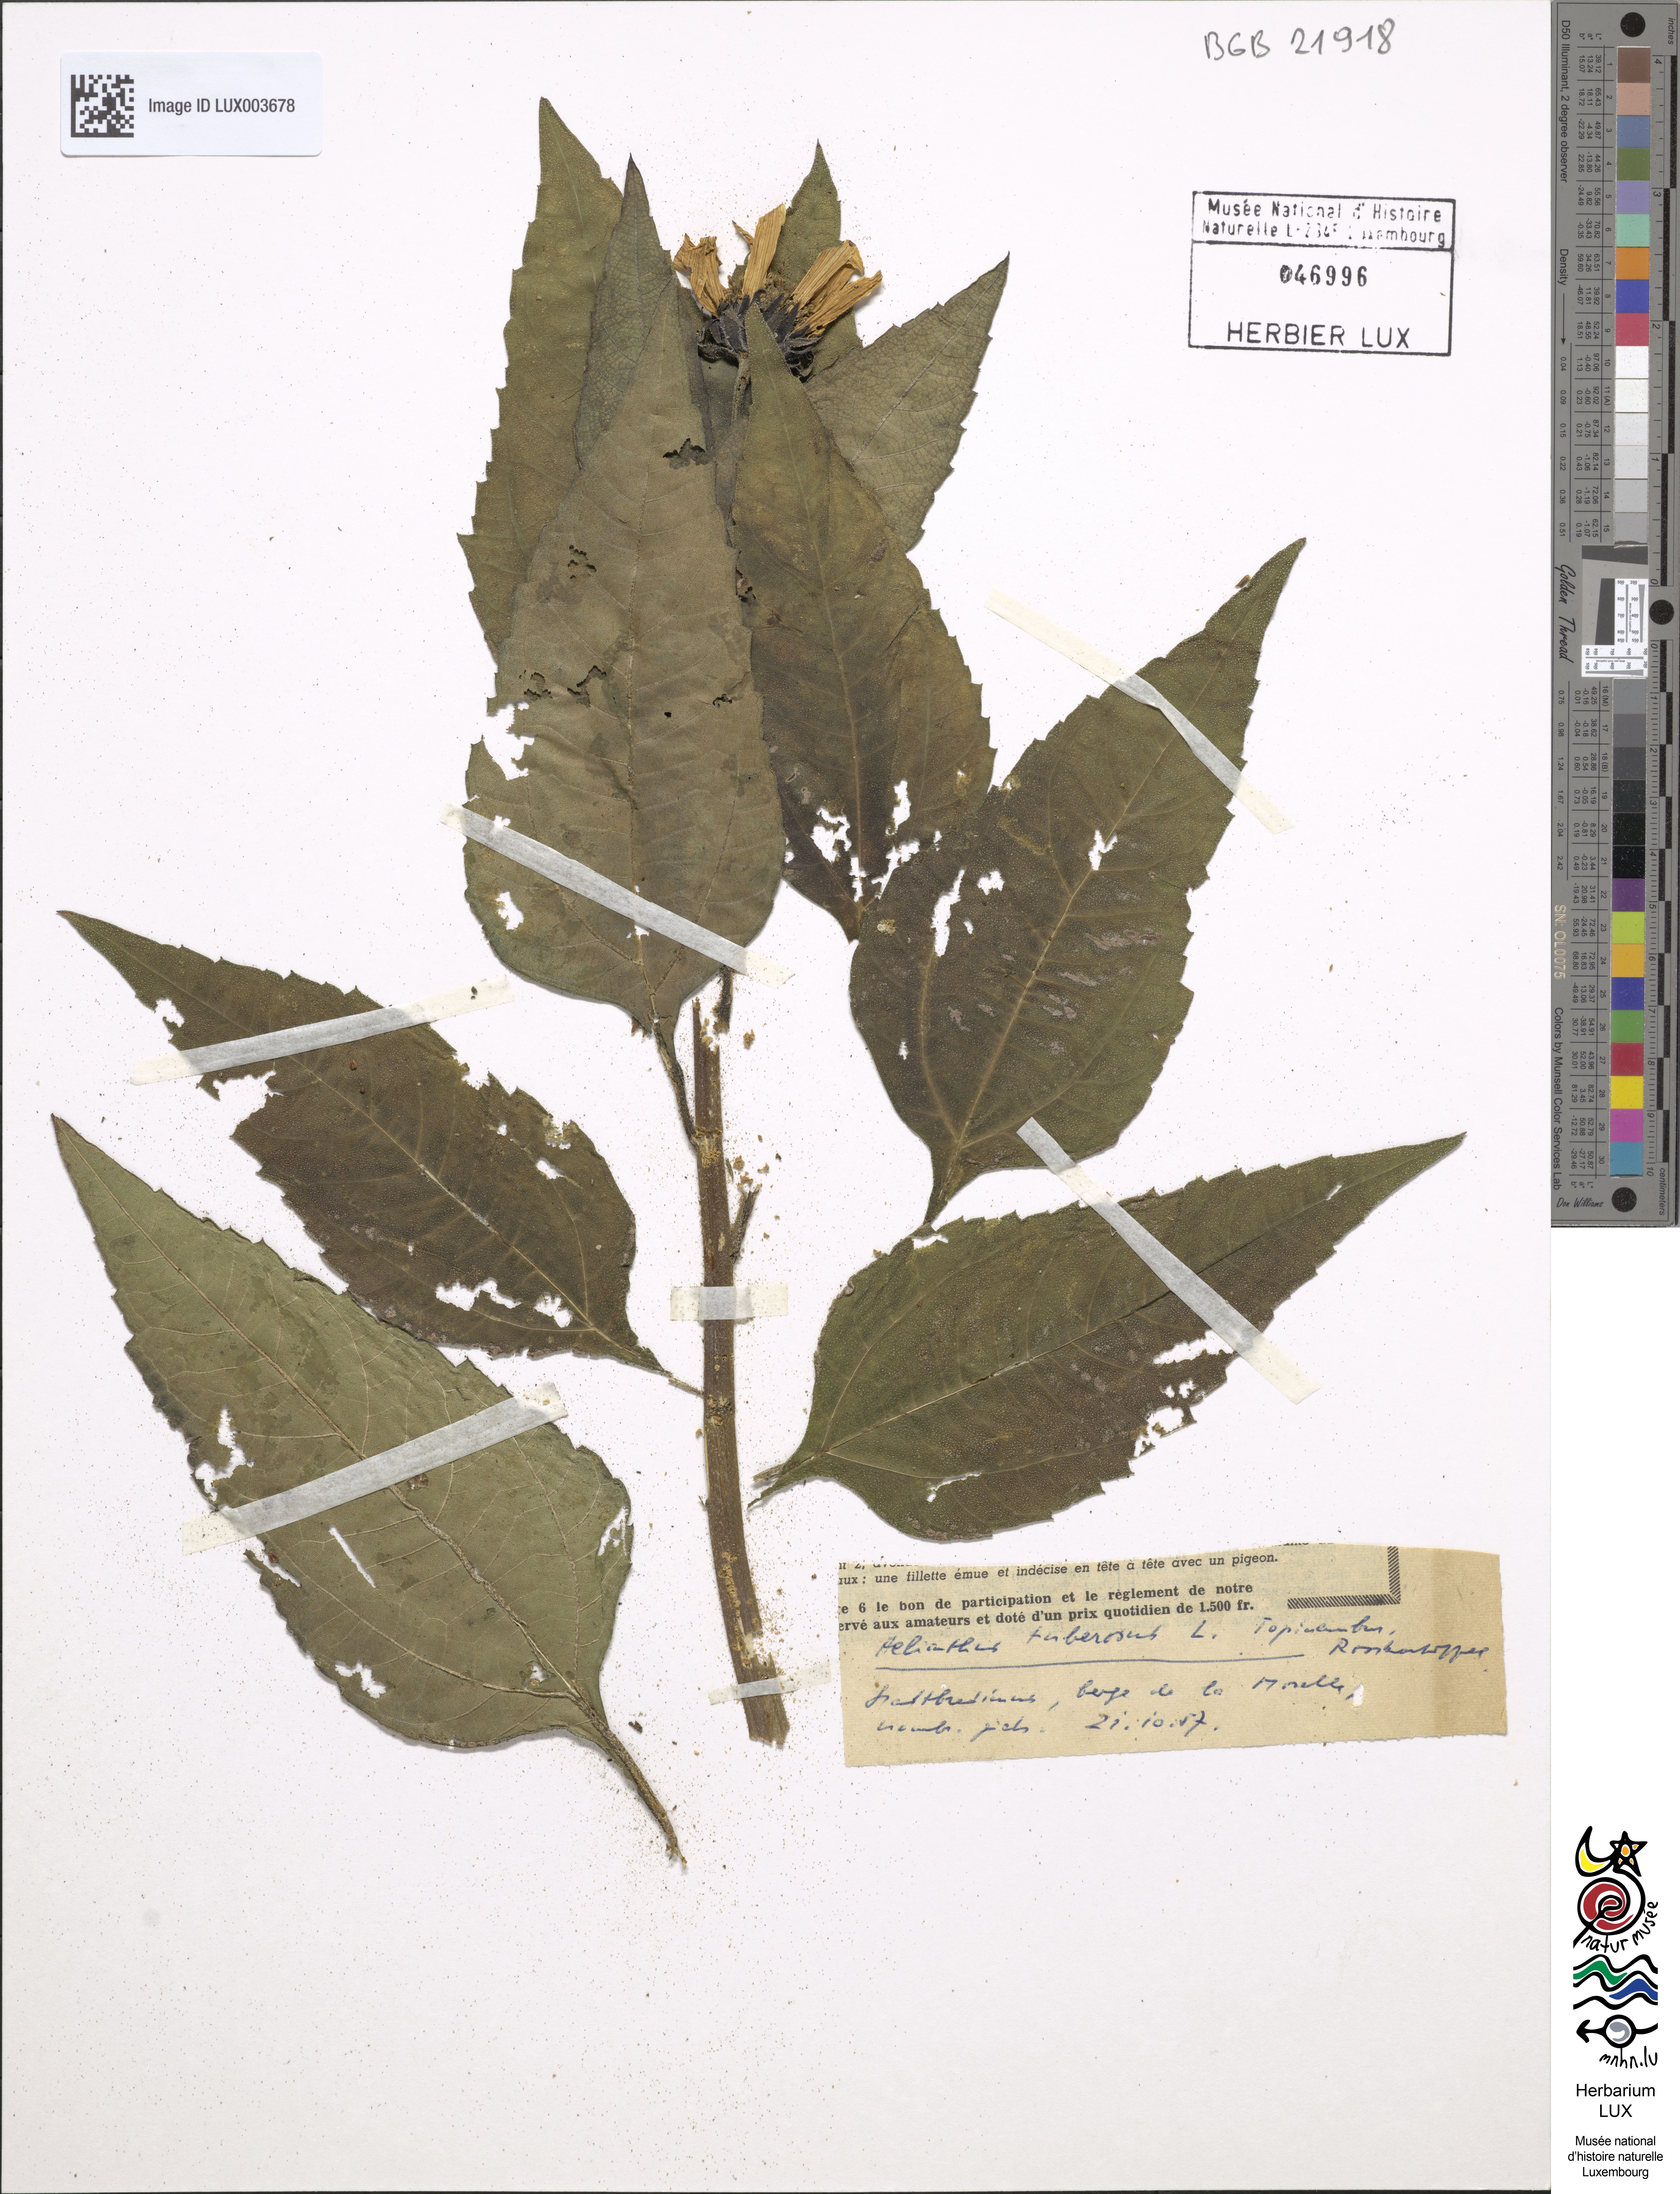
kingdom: Plantae
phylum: Tracheophyta
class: Magnoliopsida
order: Asterales
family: Asteraceae
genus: Helianthus
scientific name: Helianthus tuberosus
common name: Jerusalem artichoke
